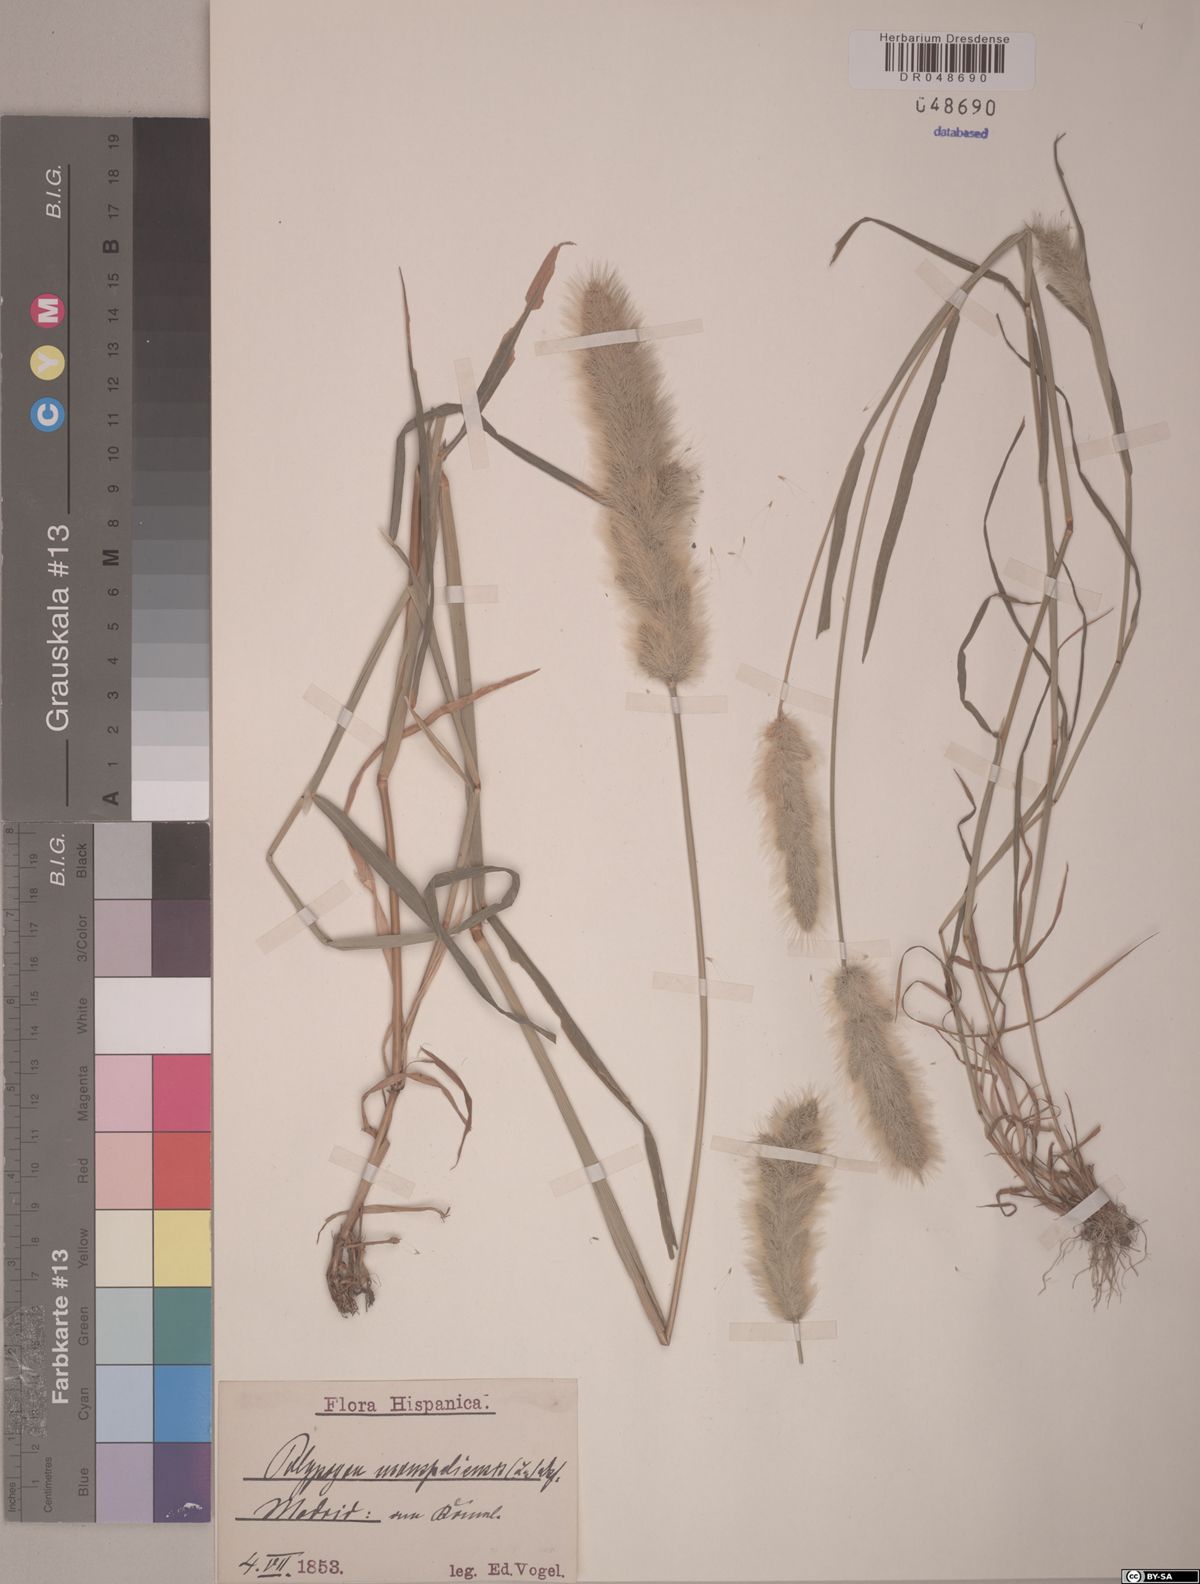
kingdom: Plantae
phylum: Tracheophyta
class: Liliopsida
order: Poales
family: Poaceae
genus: Polypogon
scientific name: Polypogon monspeliensis
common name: Annual rabbitsfoot grass
